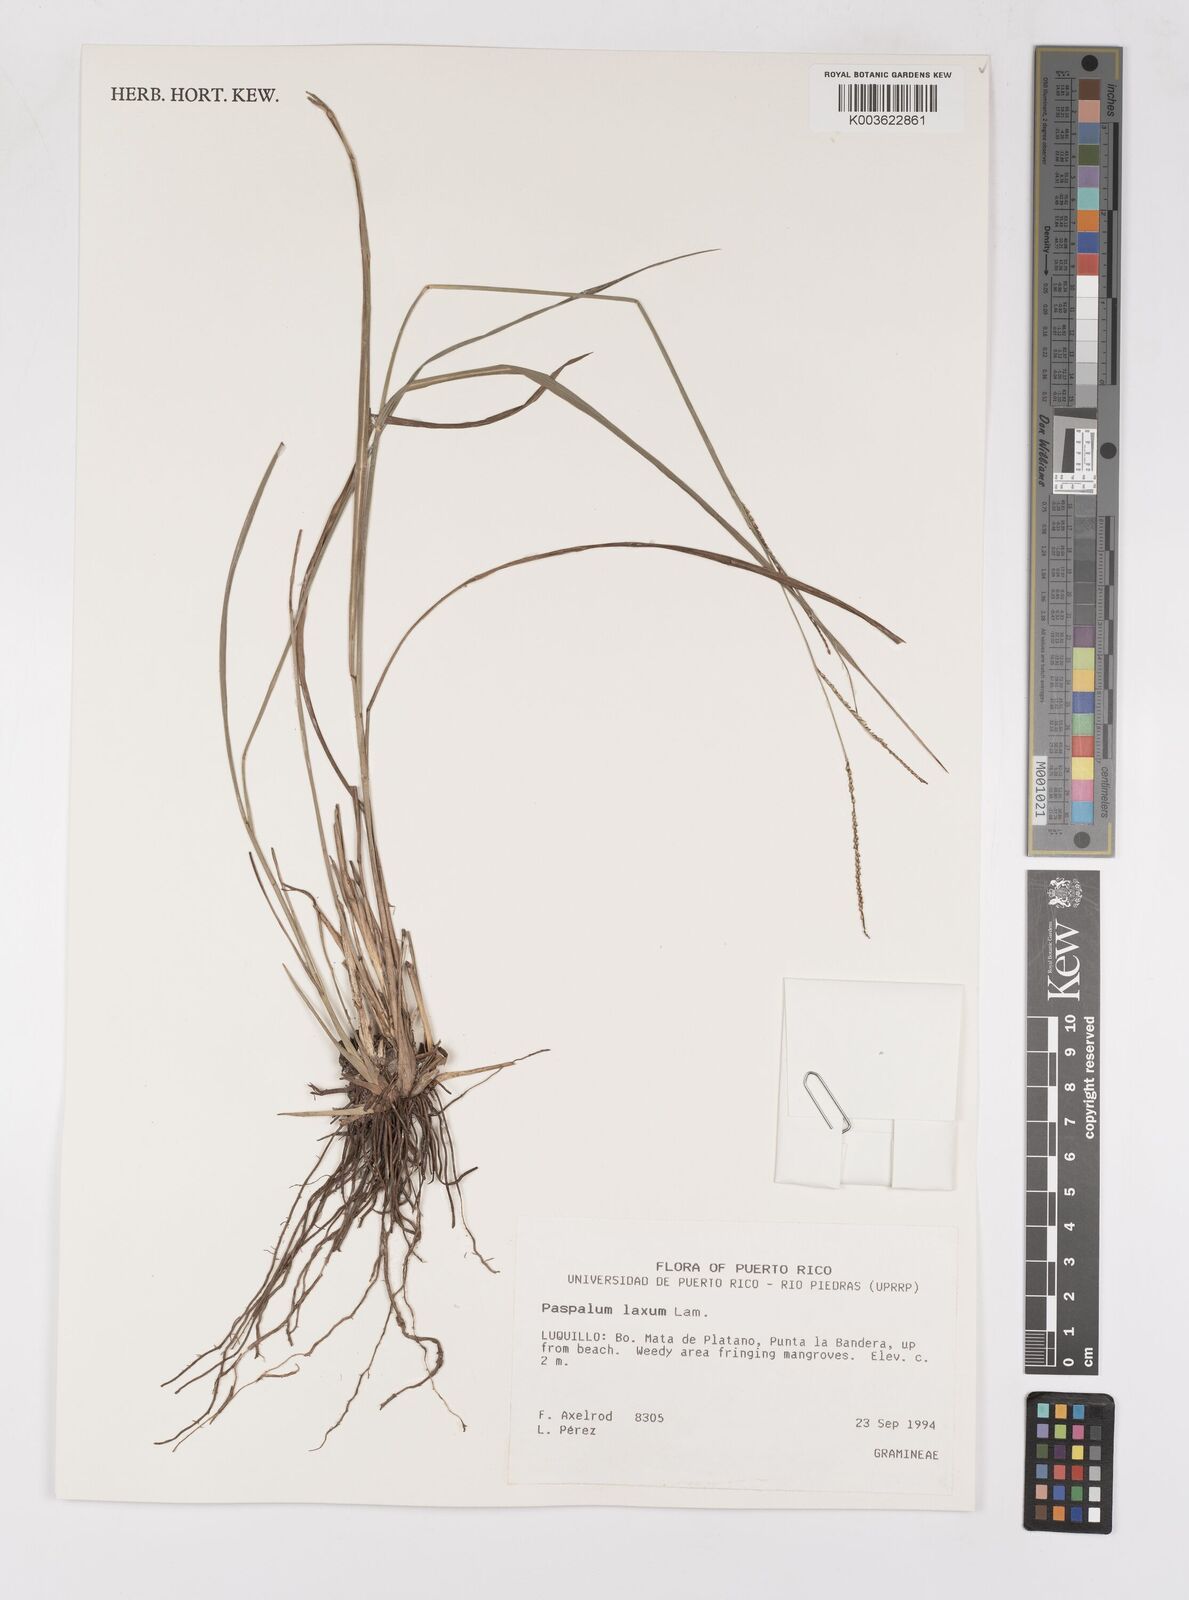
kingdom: Plantae
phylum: Tracheophyta
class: Liliopsida
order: Poales
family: Poaceae
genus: Paspalum
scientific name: Paspalum laxum
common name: Coconut paspalum
